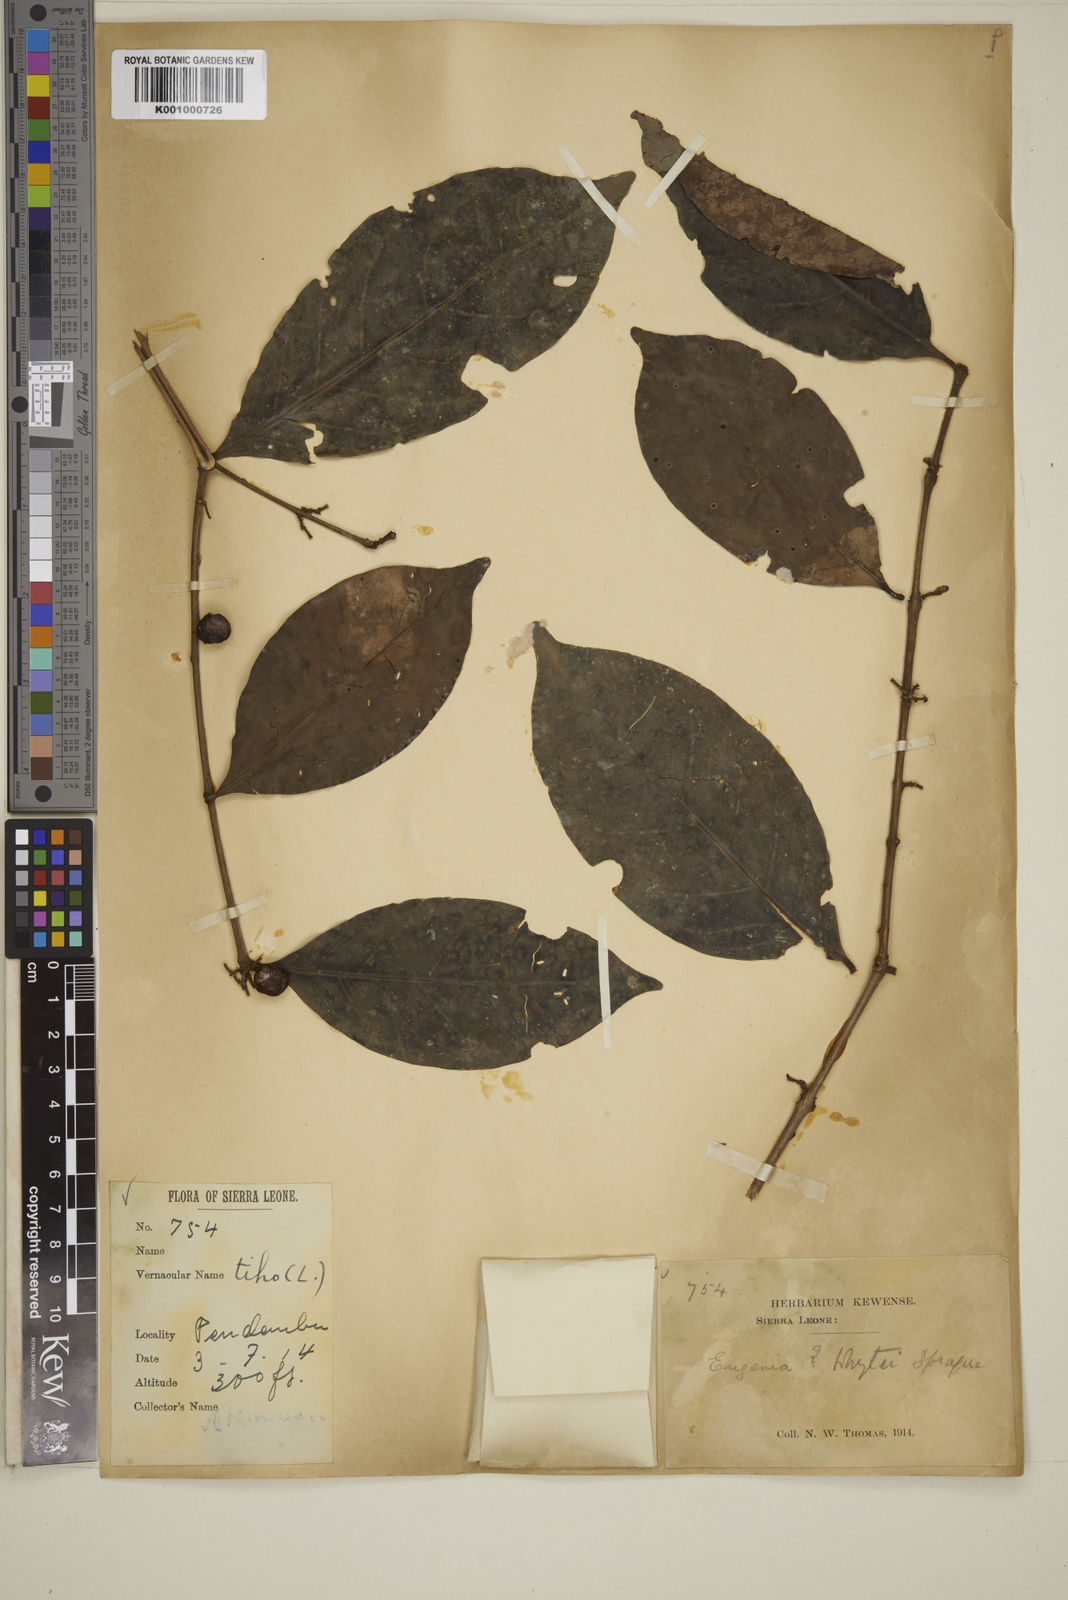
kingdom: Plantae
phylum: Tracheophyta
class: Magnoliopsida
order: Myrtales
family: Myrtaceae
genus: Eugenia
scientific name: Eugenia calophylloides
